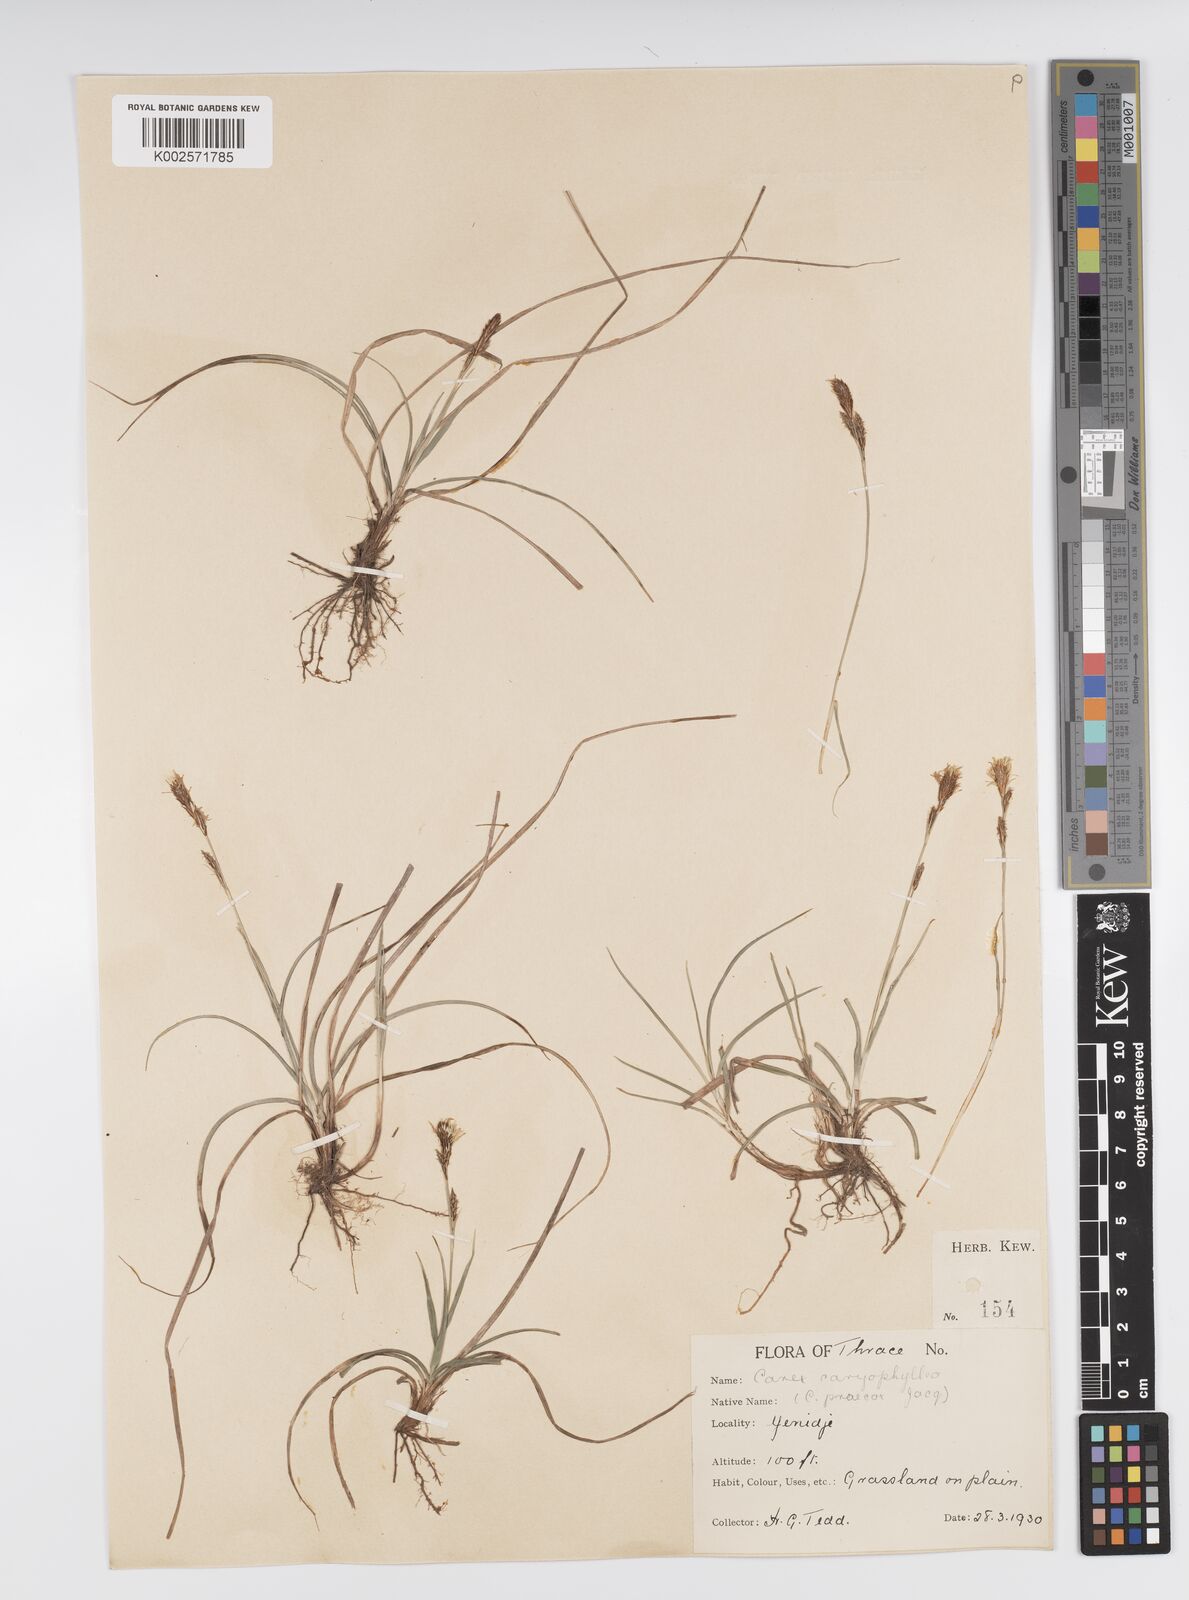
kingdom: Plantae
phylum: Tracheophyta
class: Liliopsida
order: Poales
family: Cyperaceae
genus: Carex
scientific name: Carex caryophyllea
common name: Spring sedge
